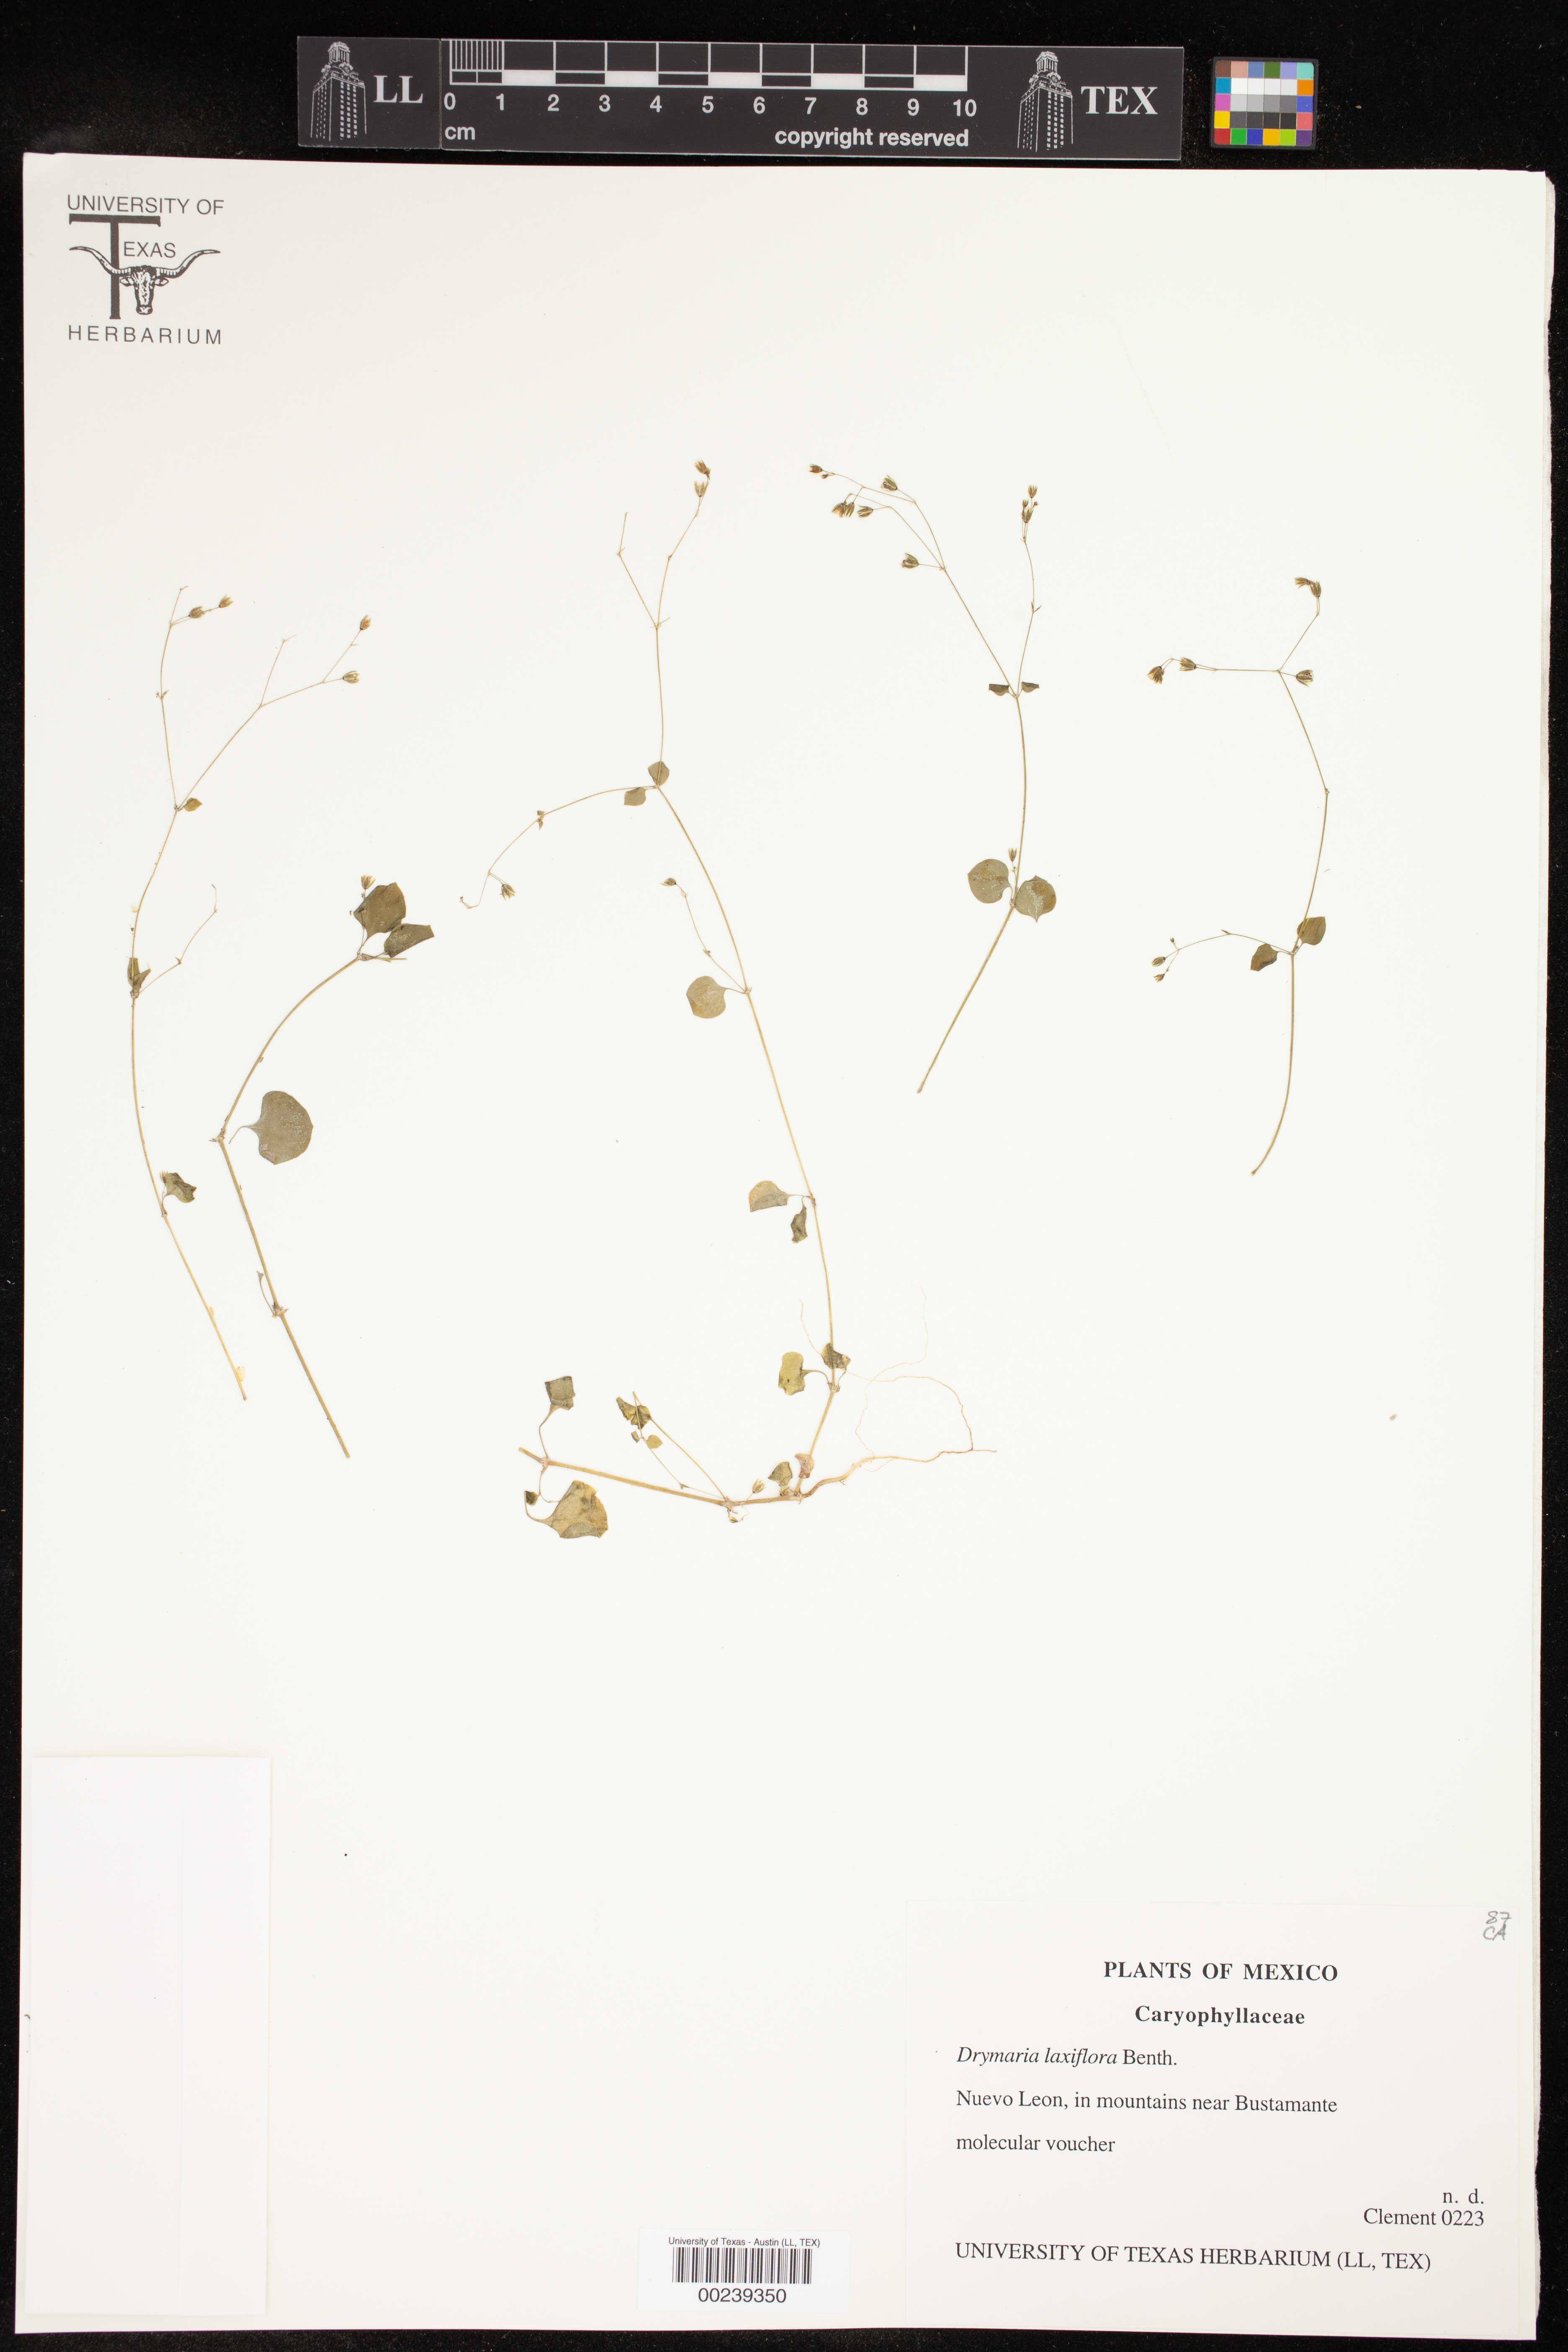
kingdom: Plantae
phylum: Tracheophyta
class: Magnoliopsida
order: Caryophyllales
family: Caryophyllaceae
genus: Drymaria
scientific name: Drymaria laxiflora
